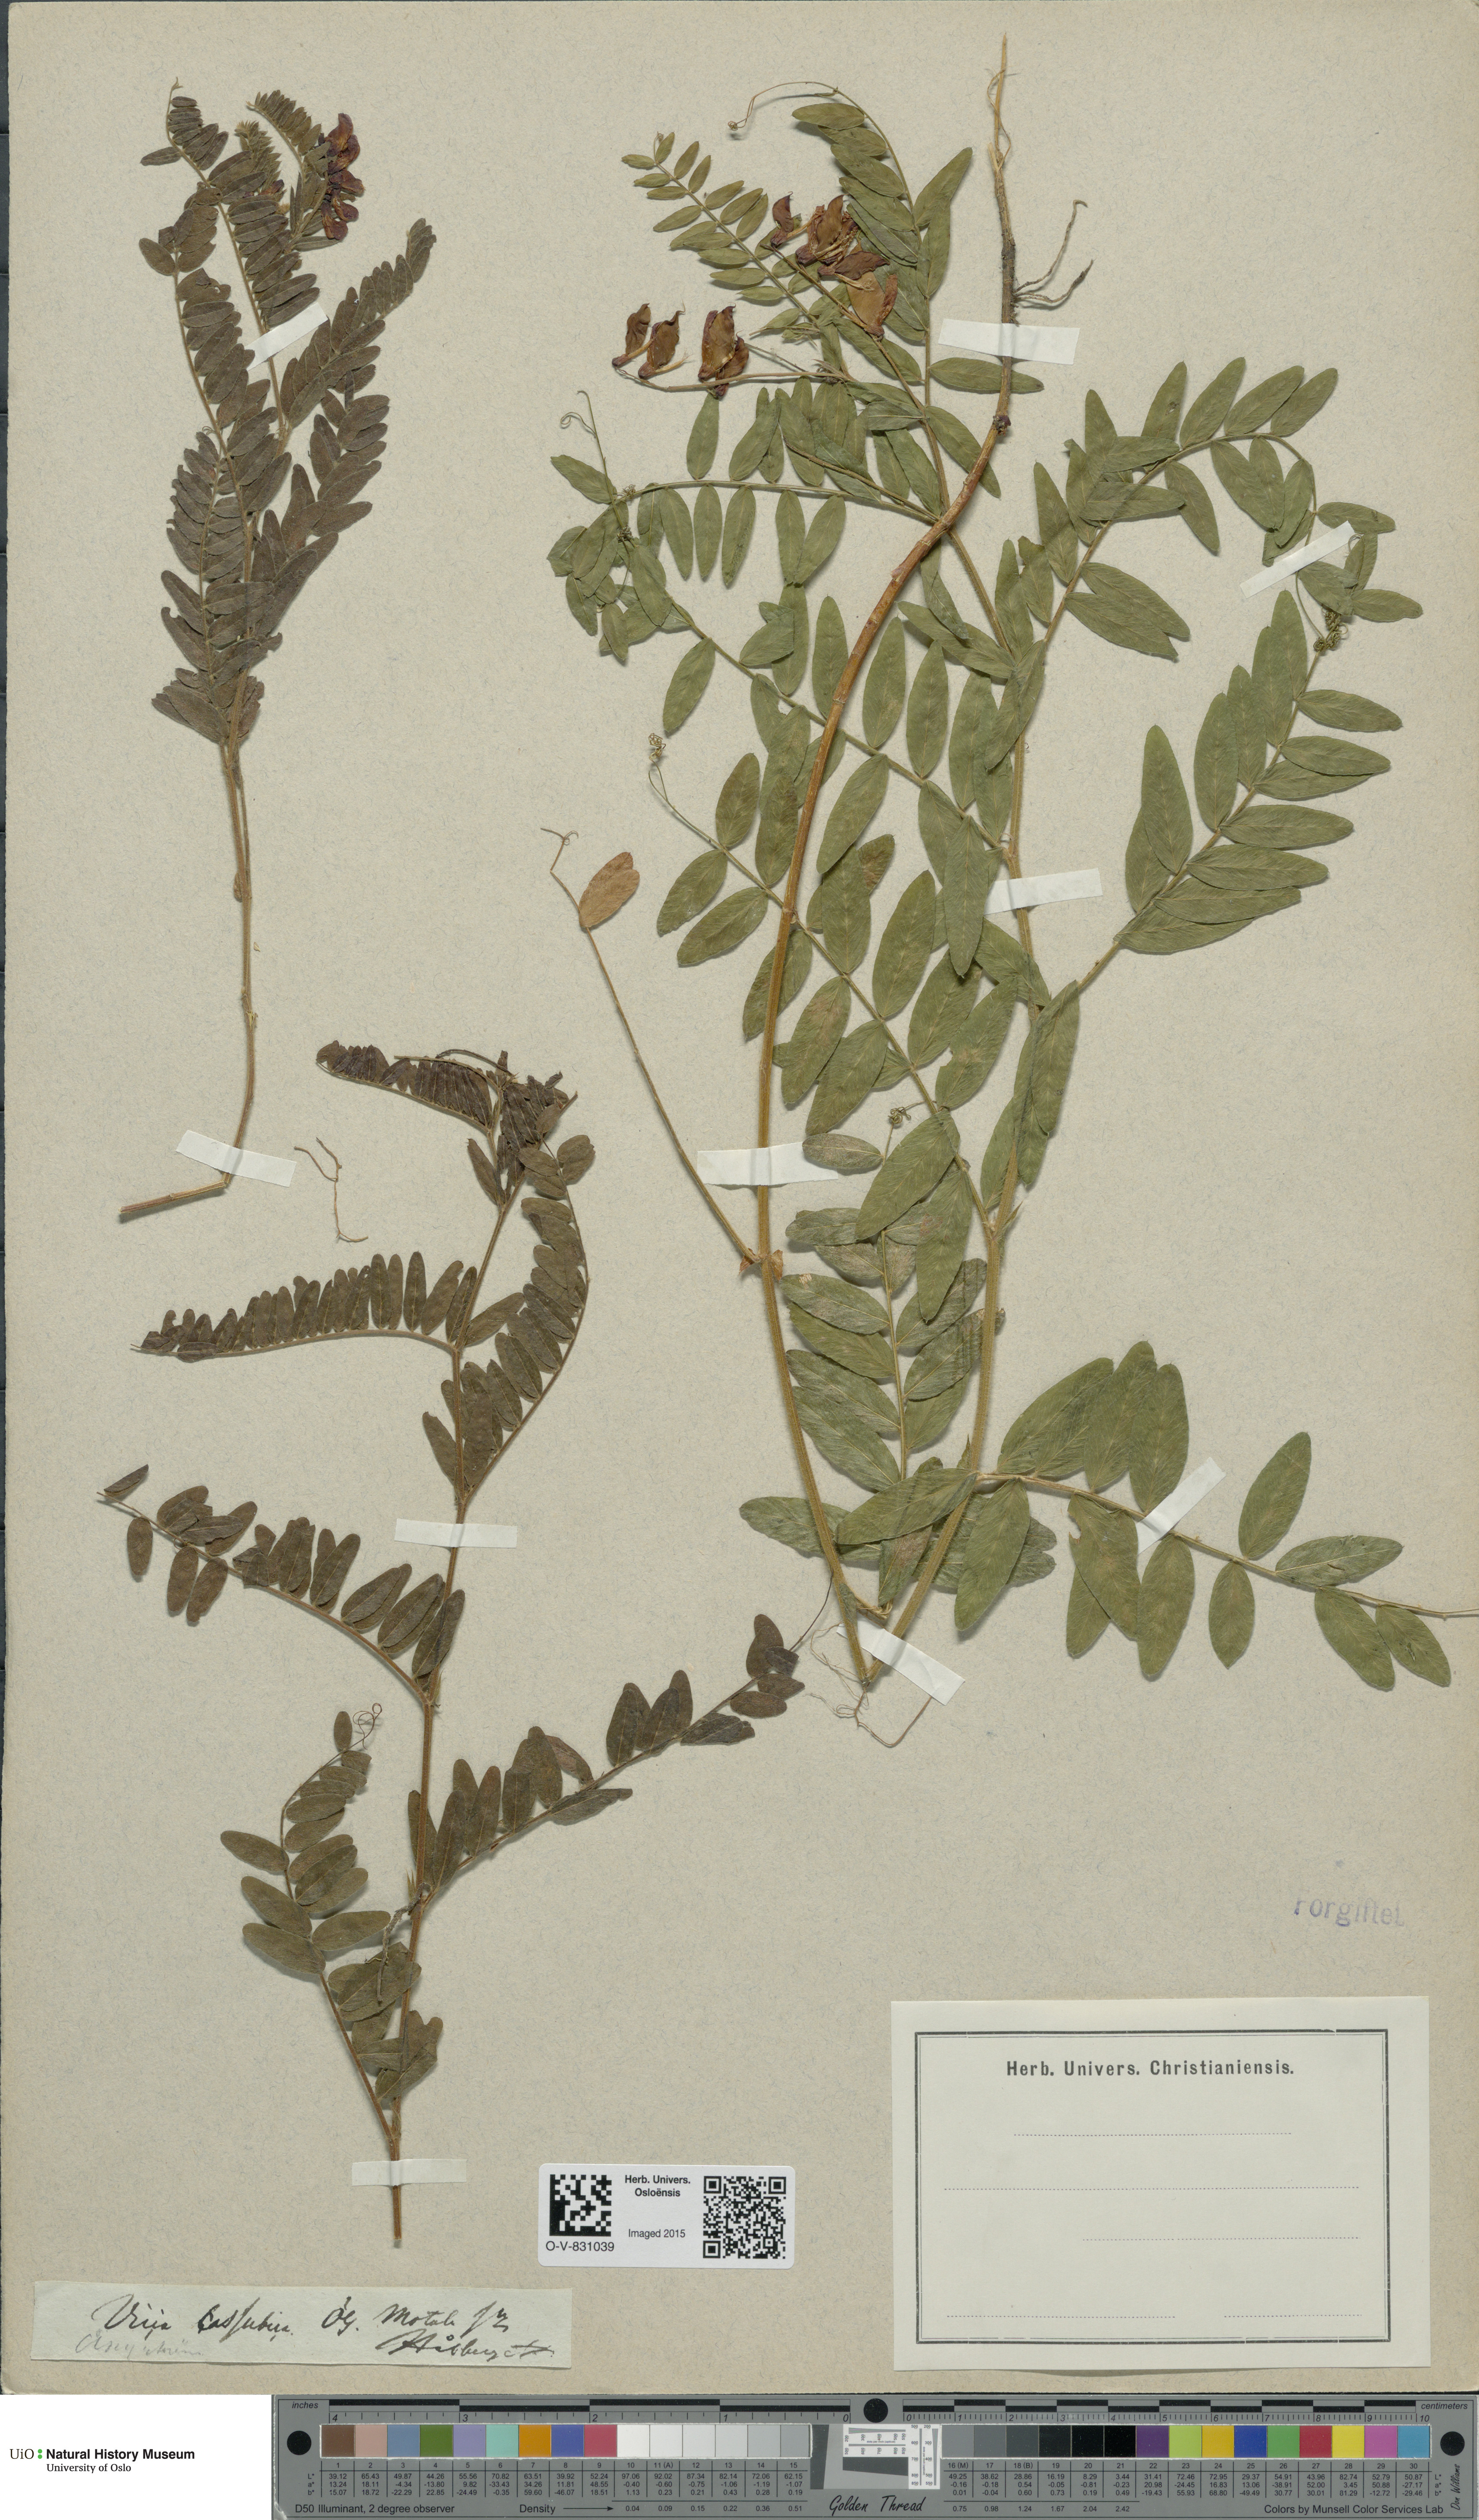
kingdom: Plantae
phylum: Tracheophyta
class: Magnoliopsida
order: Fabales
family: Fabaceae
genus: Vicia
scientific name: Vicia cassubica
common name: Danzig vetch
